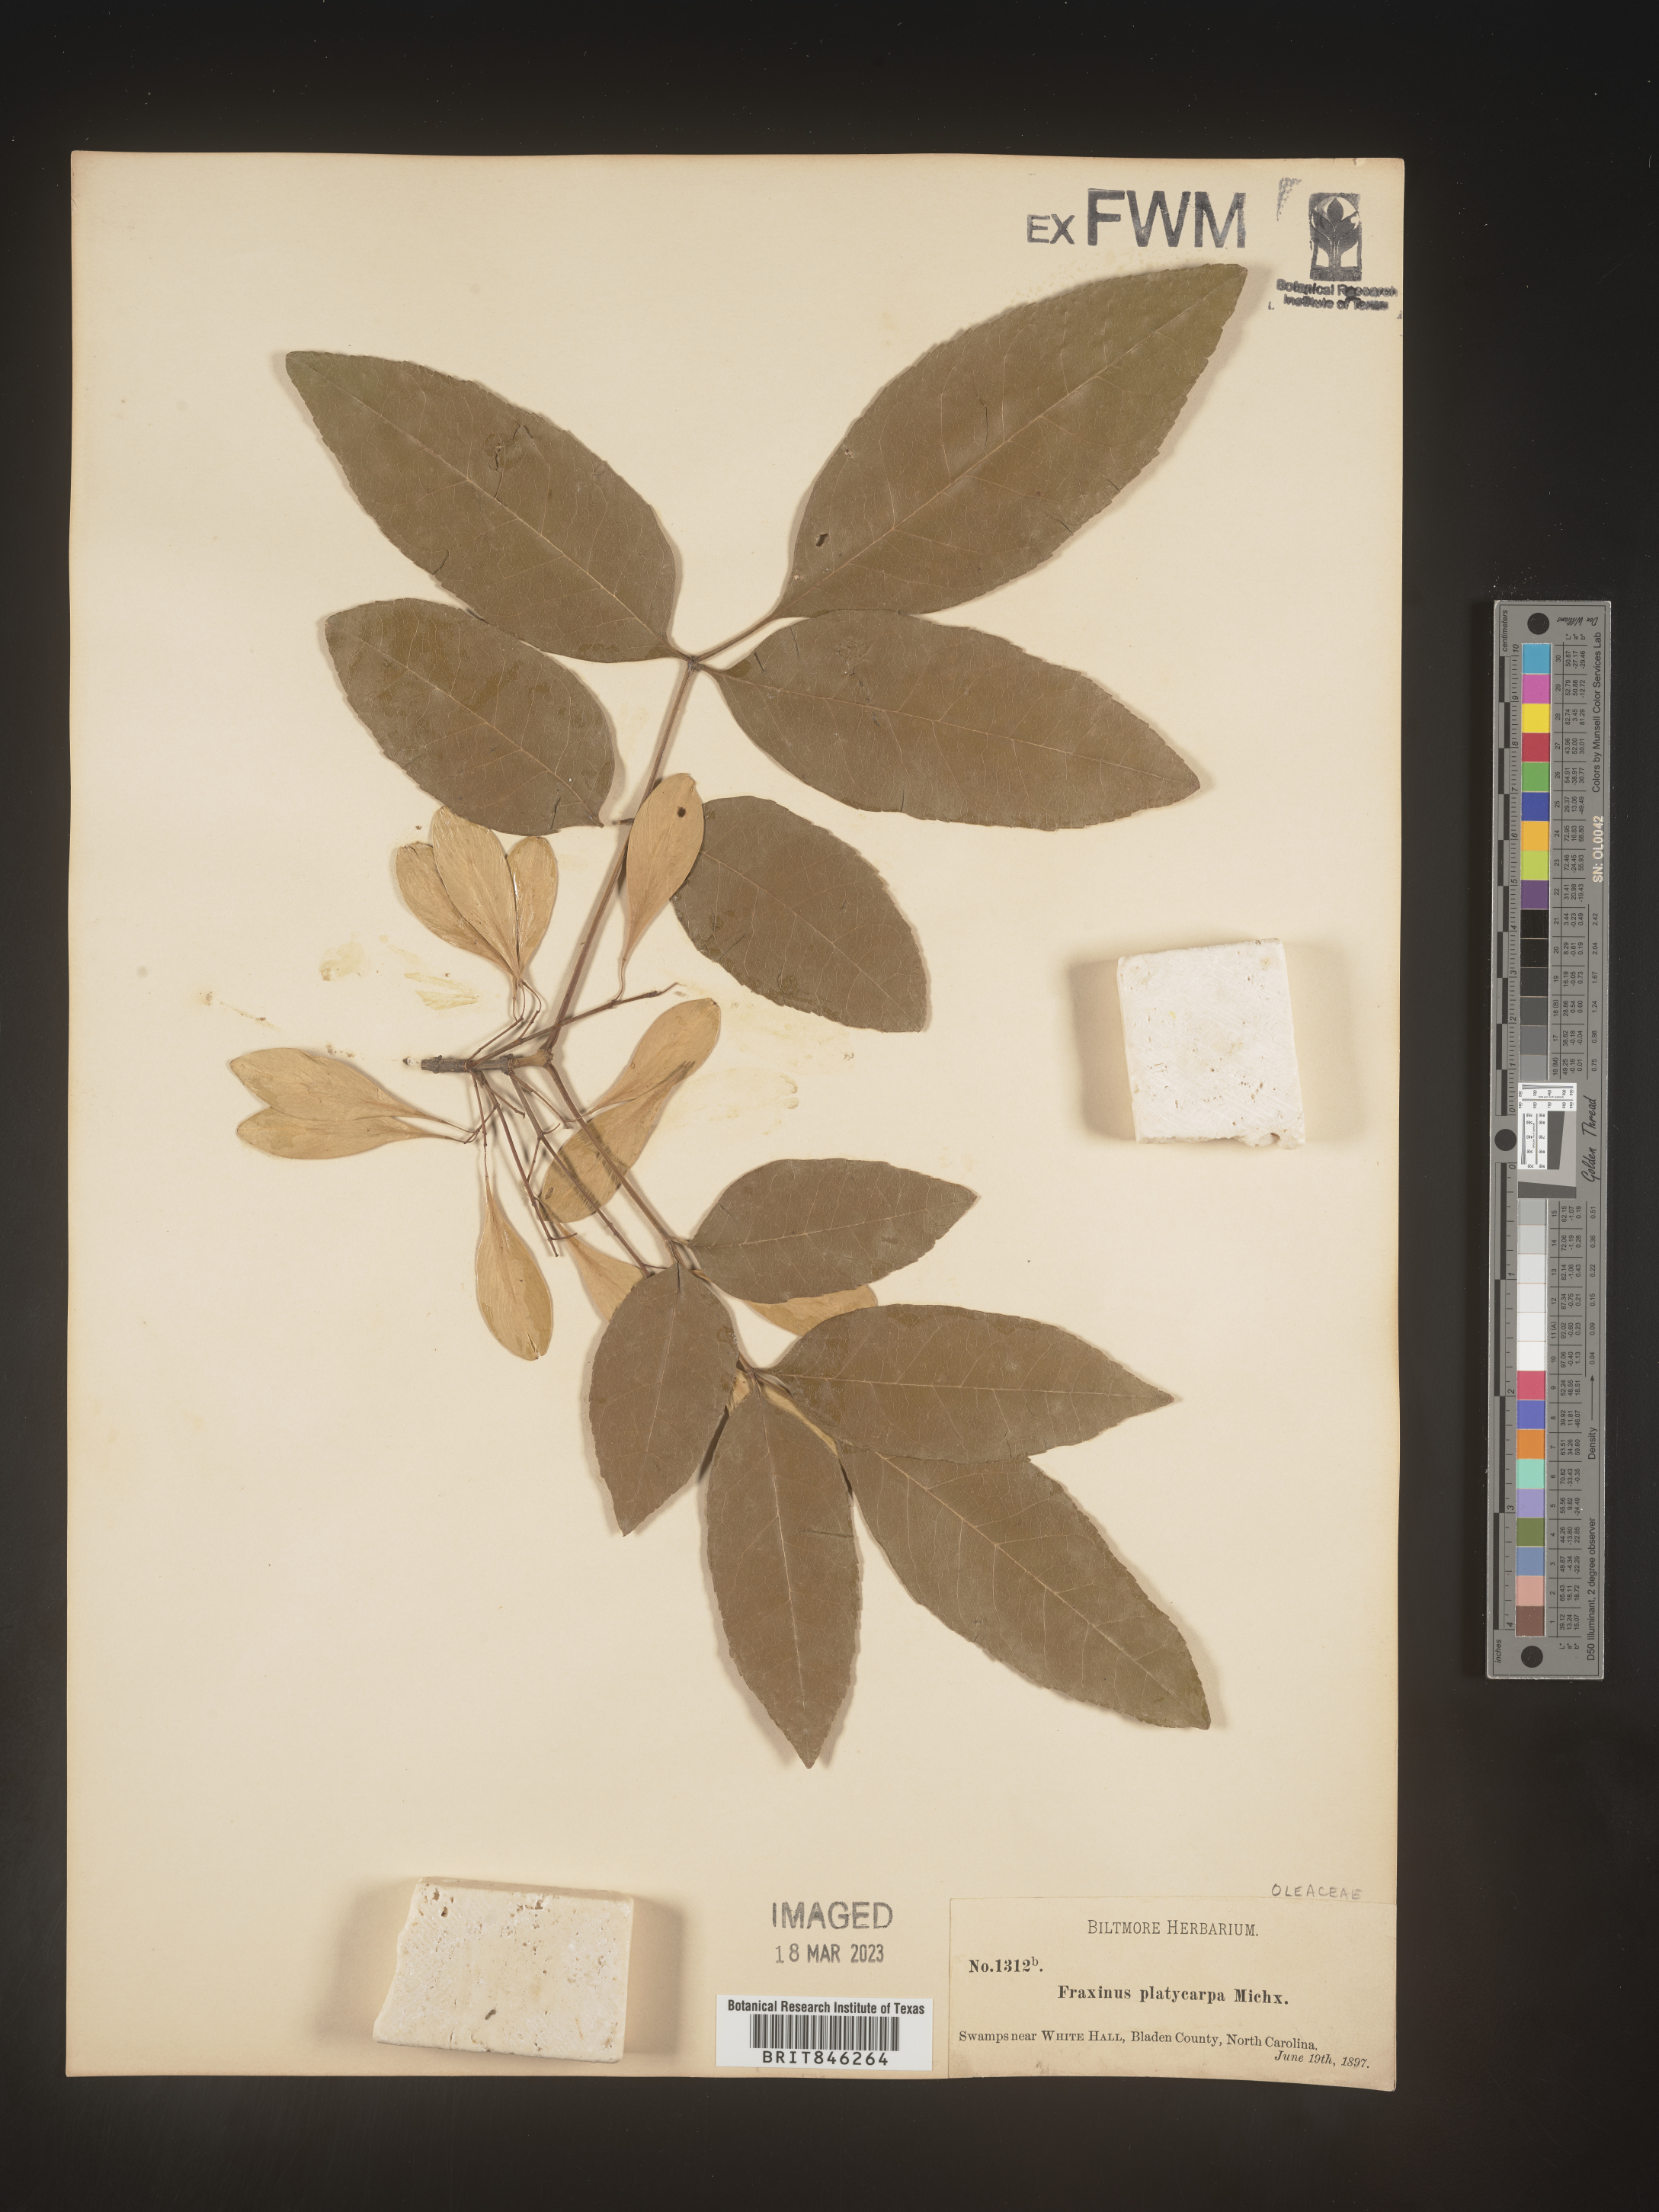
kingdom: Plantae
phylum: Tracheophyta
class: Magnoliopsida
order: Lamiales
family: Oleaceae
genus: Fraxinus
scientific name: Fraxinus pennsylvanica
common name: Green ash
